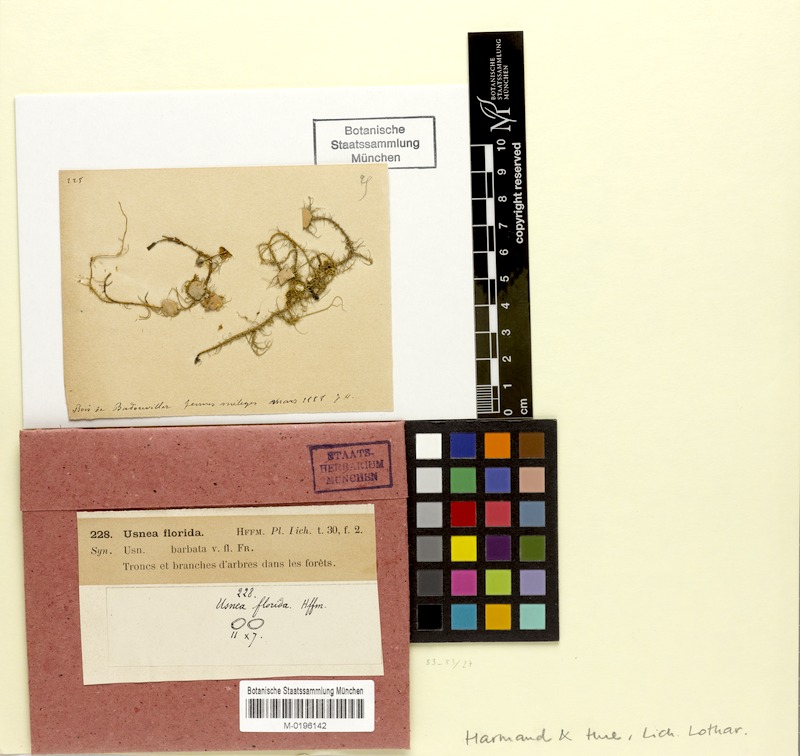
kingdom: Fungi
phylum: Ascomycota
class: Lecanoromycetes
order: Lecanorales
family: Parmeliaceae
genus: Usnea
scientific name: Usnea florida
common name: Witches' whiskers lichen
